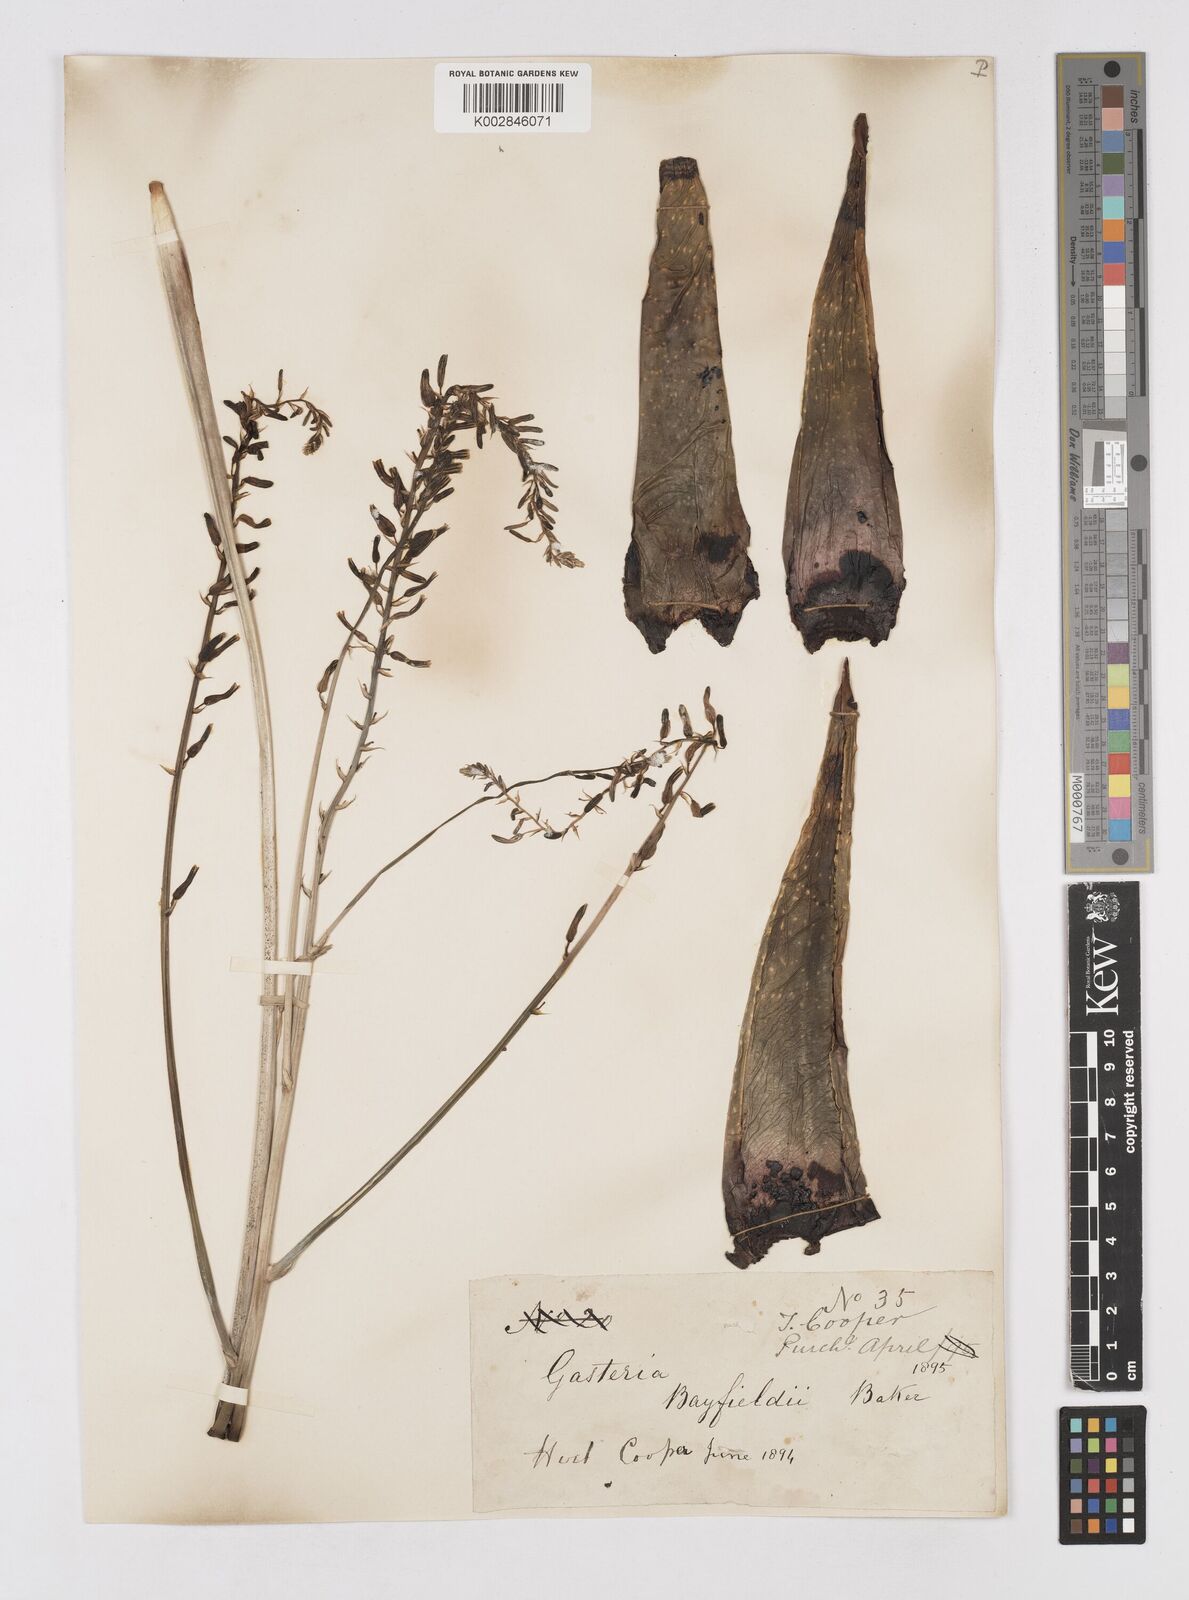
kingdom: Plantae
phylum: Tracheophyta
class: Liliopsida
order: Asparagales
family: Asphodelaceae
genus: Gasterhaworthia
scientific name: Gasterhaworthia bayfieldii
